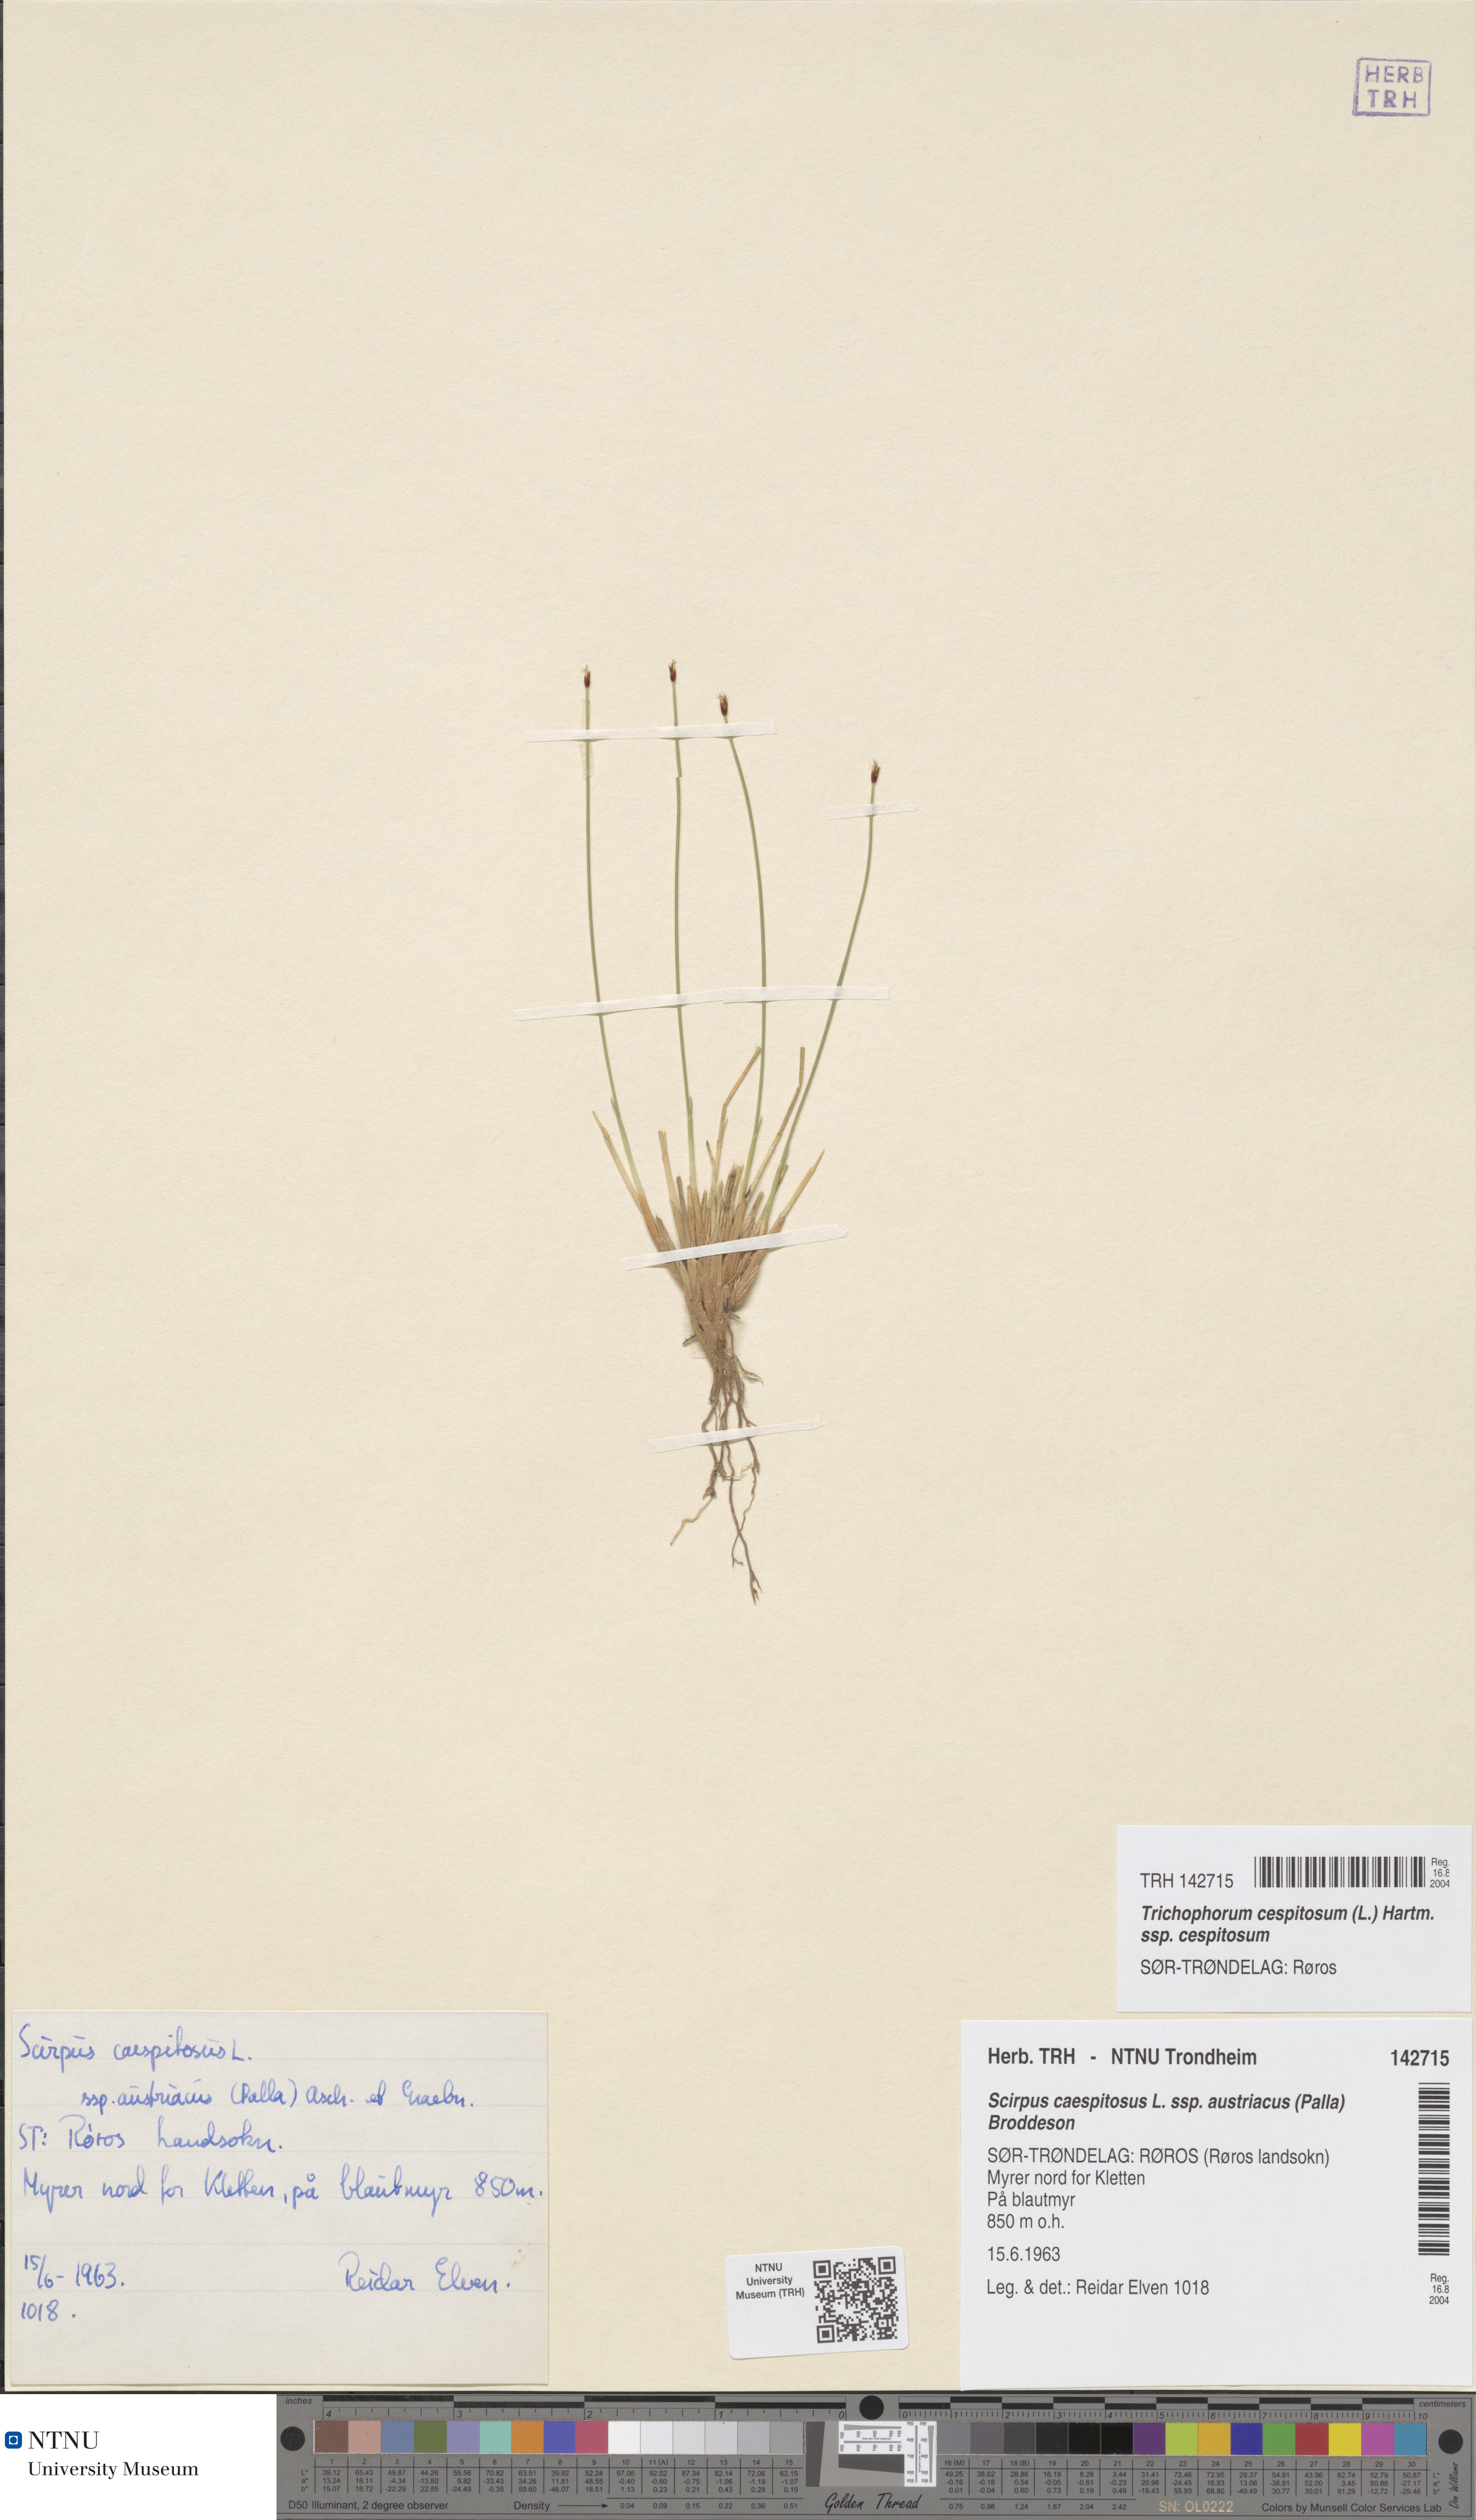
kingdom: Plantae
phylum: Tracheophyta
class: Liliopsida
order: Poales
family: Cyperaceae
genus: Trichophorum
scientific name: Trichophorum cespitosum
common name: Cespitose bulrush
